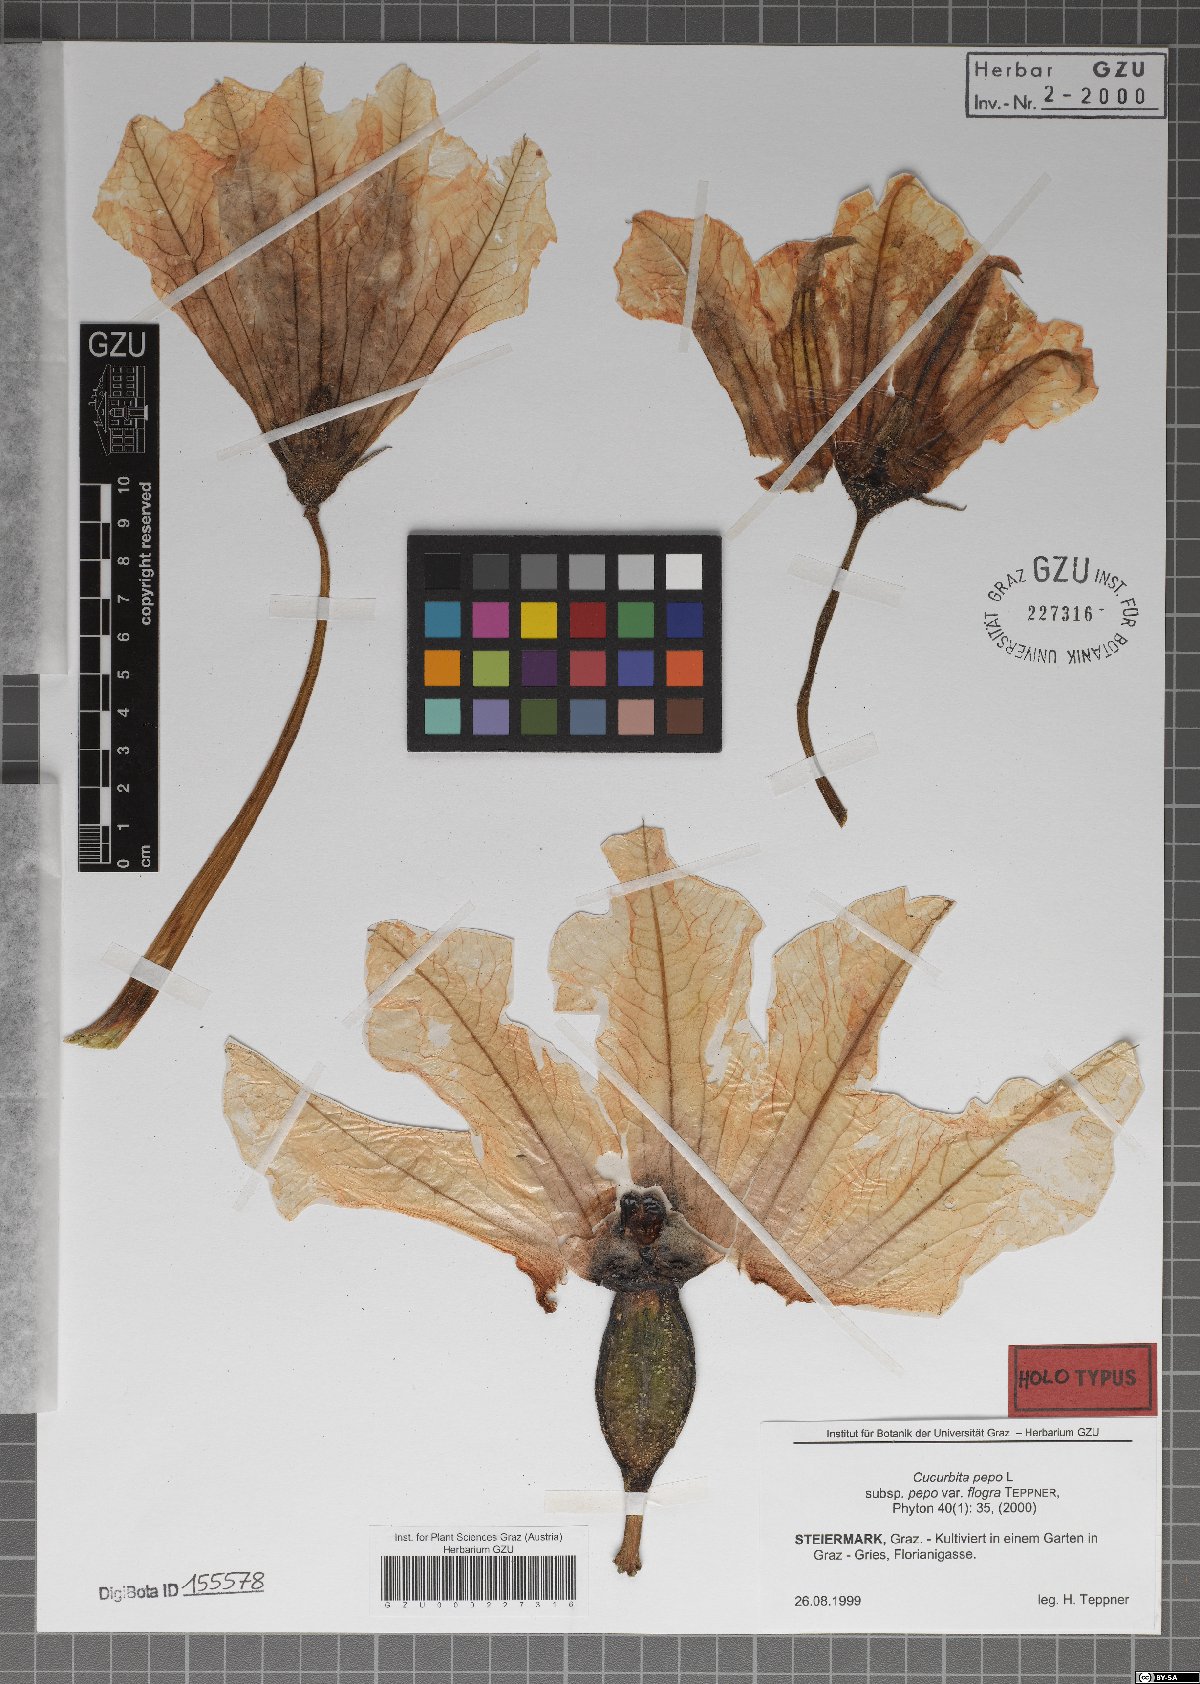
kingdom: Plantae
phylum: Tracheophyta
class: Magnoliopsida
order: Cucurbitales
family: Cucurbitaceae
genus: Cucurbita
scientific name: Cucurbita pepo
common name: Marrow
